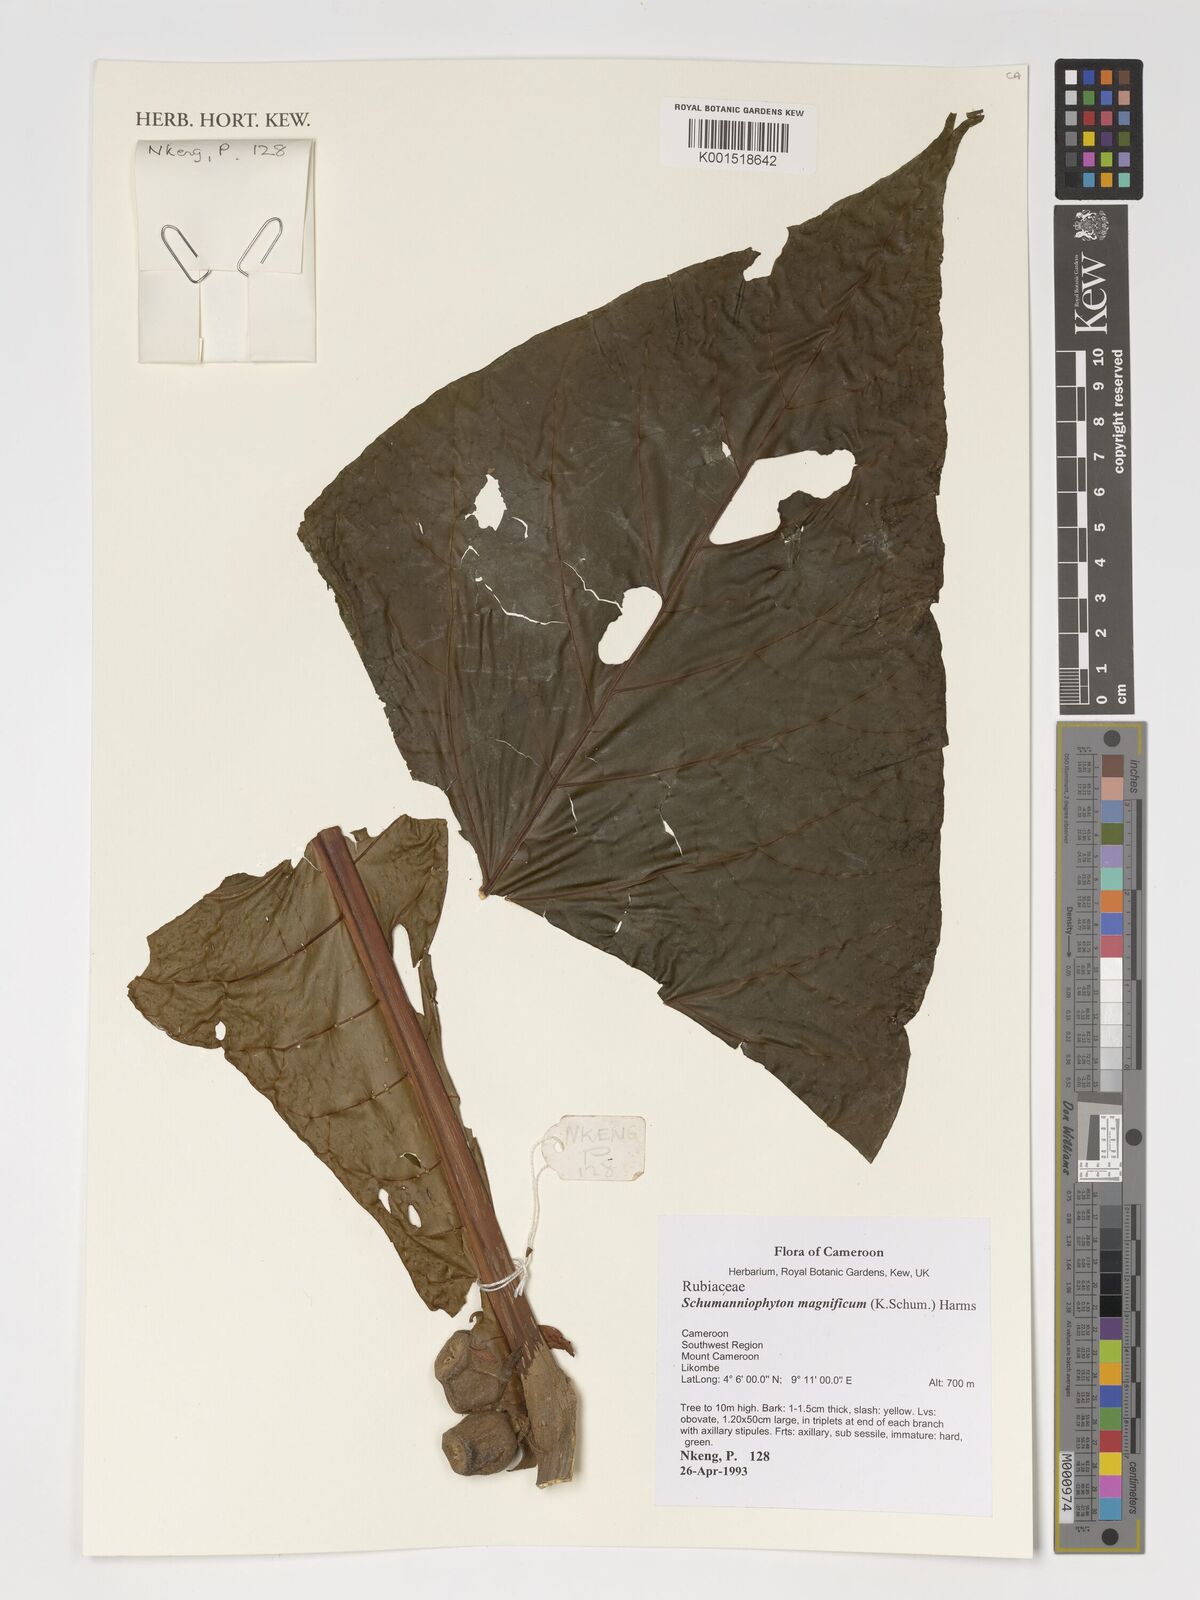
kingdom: Plantae
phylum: Tracheophyta
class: Magnoliopsida
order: Gentianales
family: Rubiaceae
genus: Schumanniophyton
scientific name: Schumanniophyton magnificum
